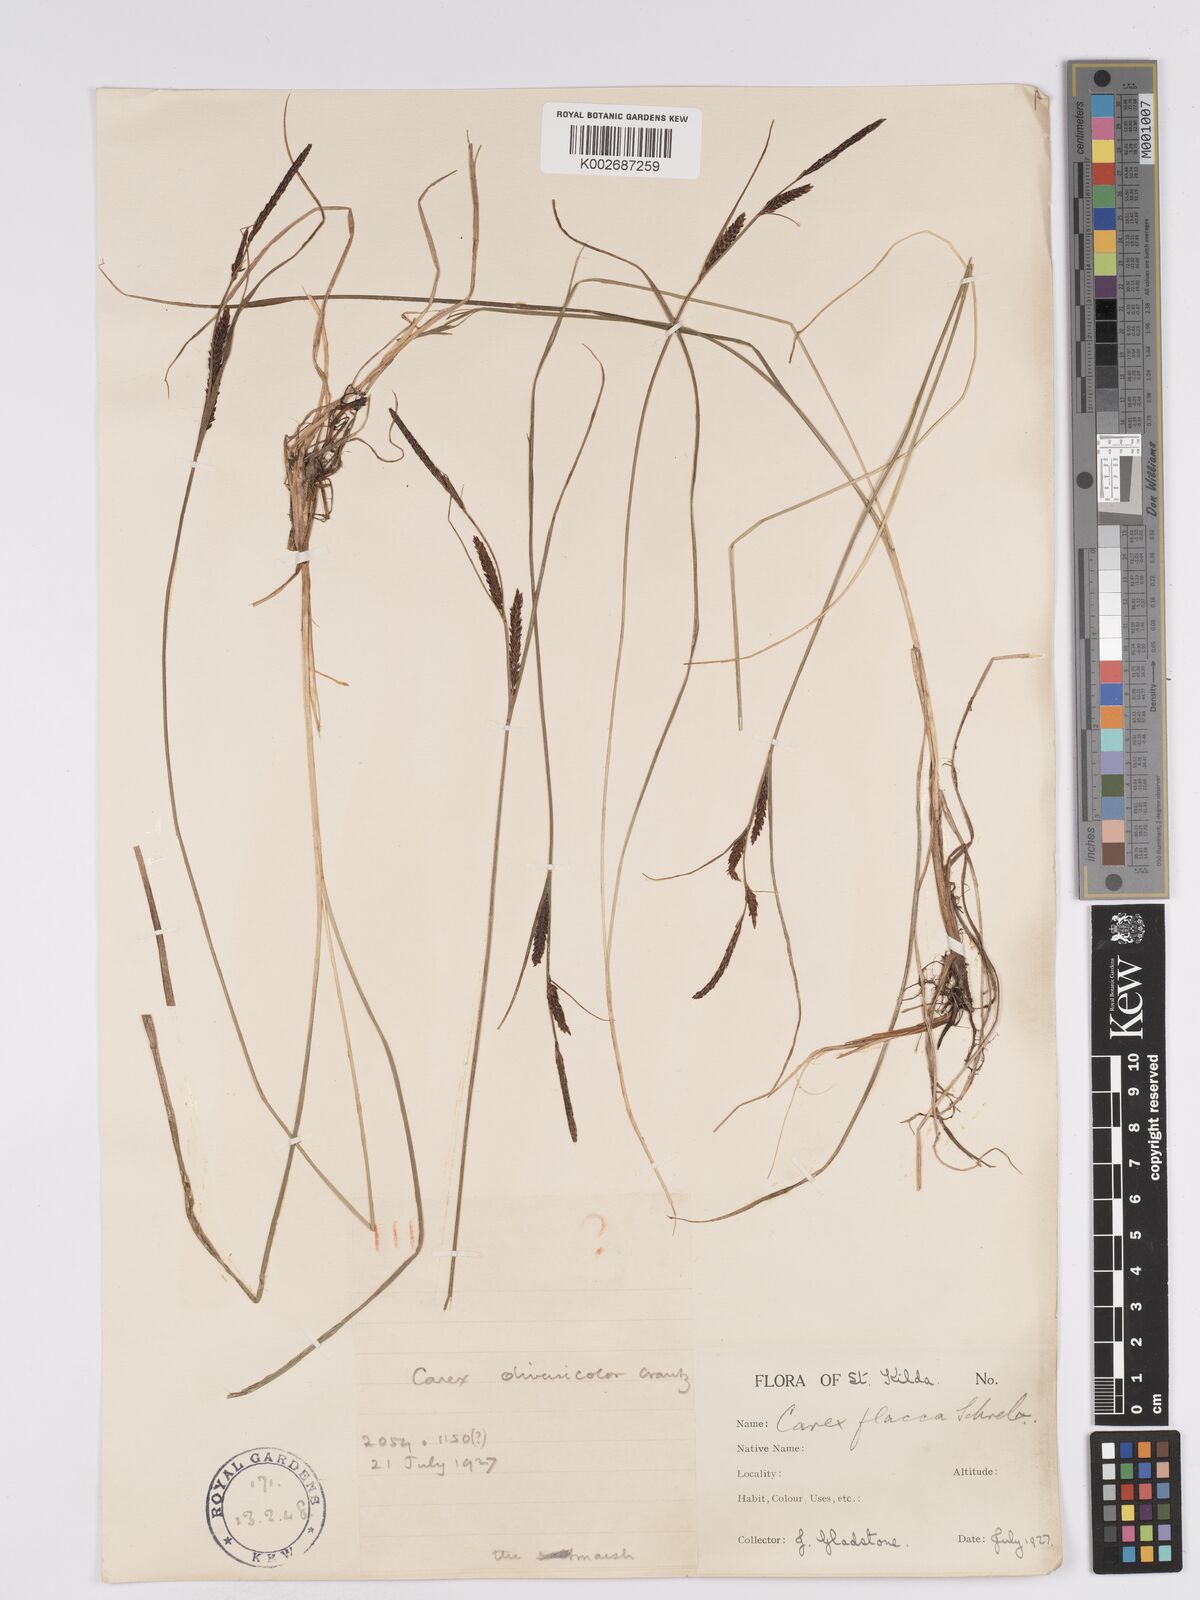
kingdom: Plantae
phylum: Tracheophyta
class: Liliopsida
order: Poales
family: Cyperaceae
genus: Carex
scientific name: Carex nigra
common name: Common sedge
